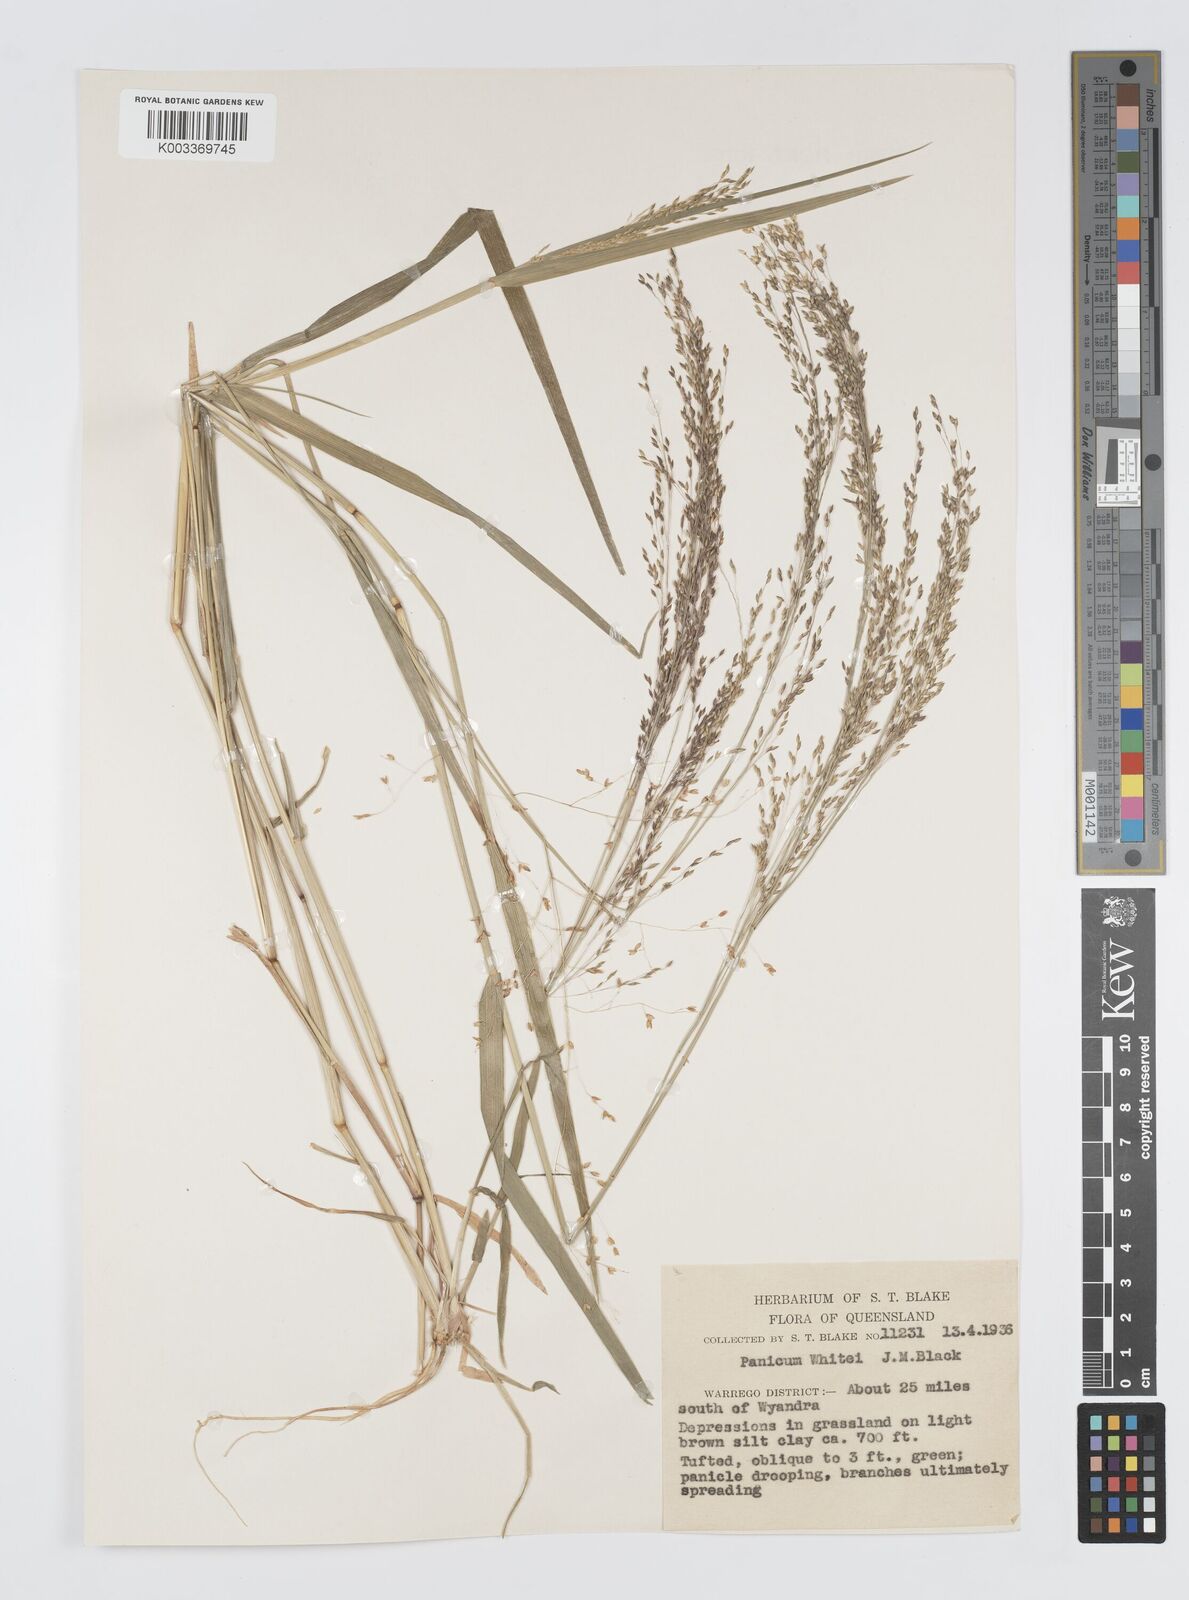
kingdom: Plantae
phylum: Tracheophyta
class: Liliopsida
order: Poales
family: Poaceae
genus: Panicum
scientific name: Panicum laevinode
